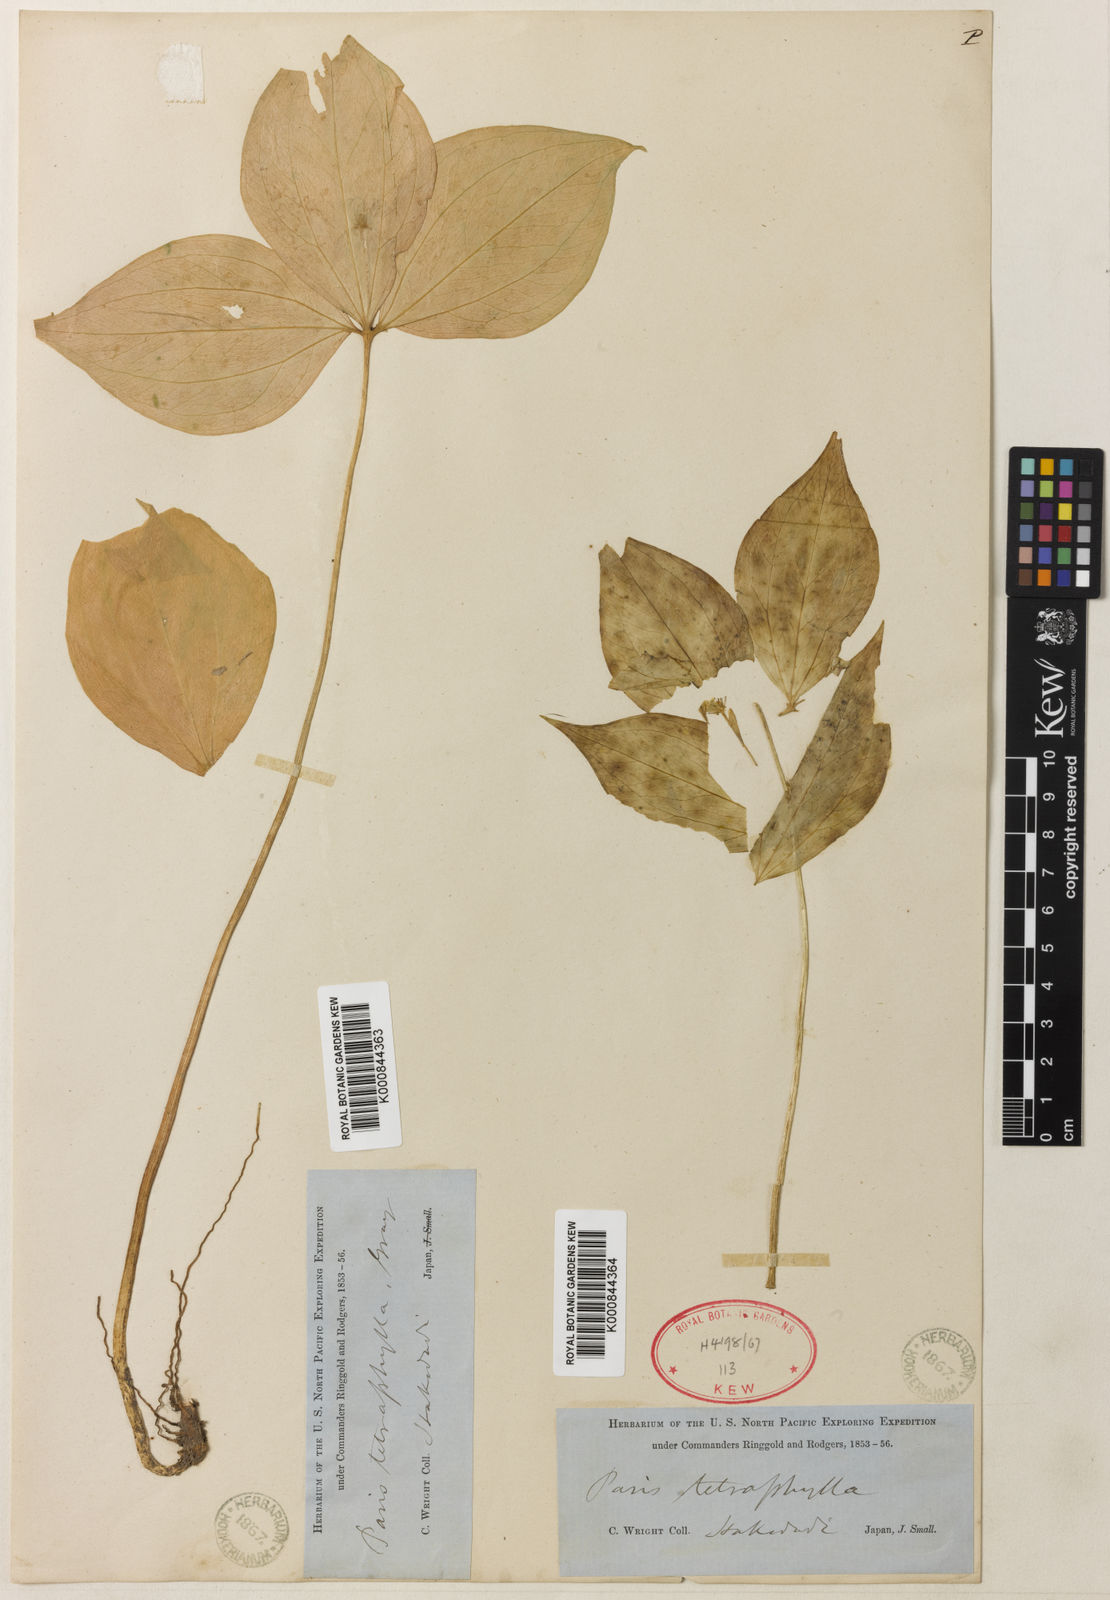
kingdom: Plantae
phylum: Tracheophyta
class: Liliopsida
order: Liliales
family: Melanthiaceae
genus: Paris
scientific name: Paris tetraphylla
